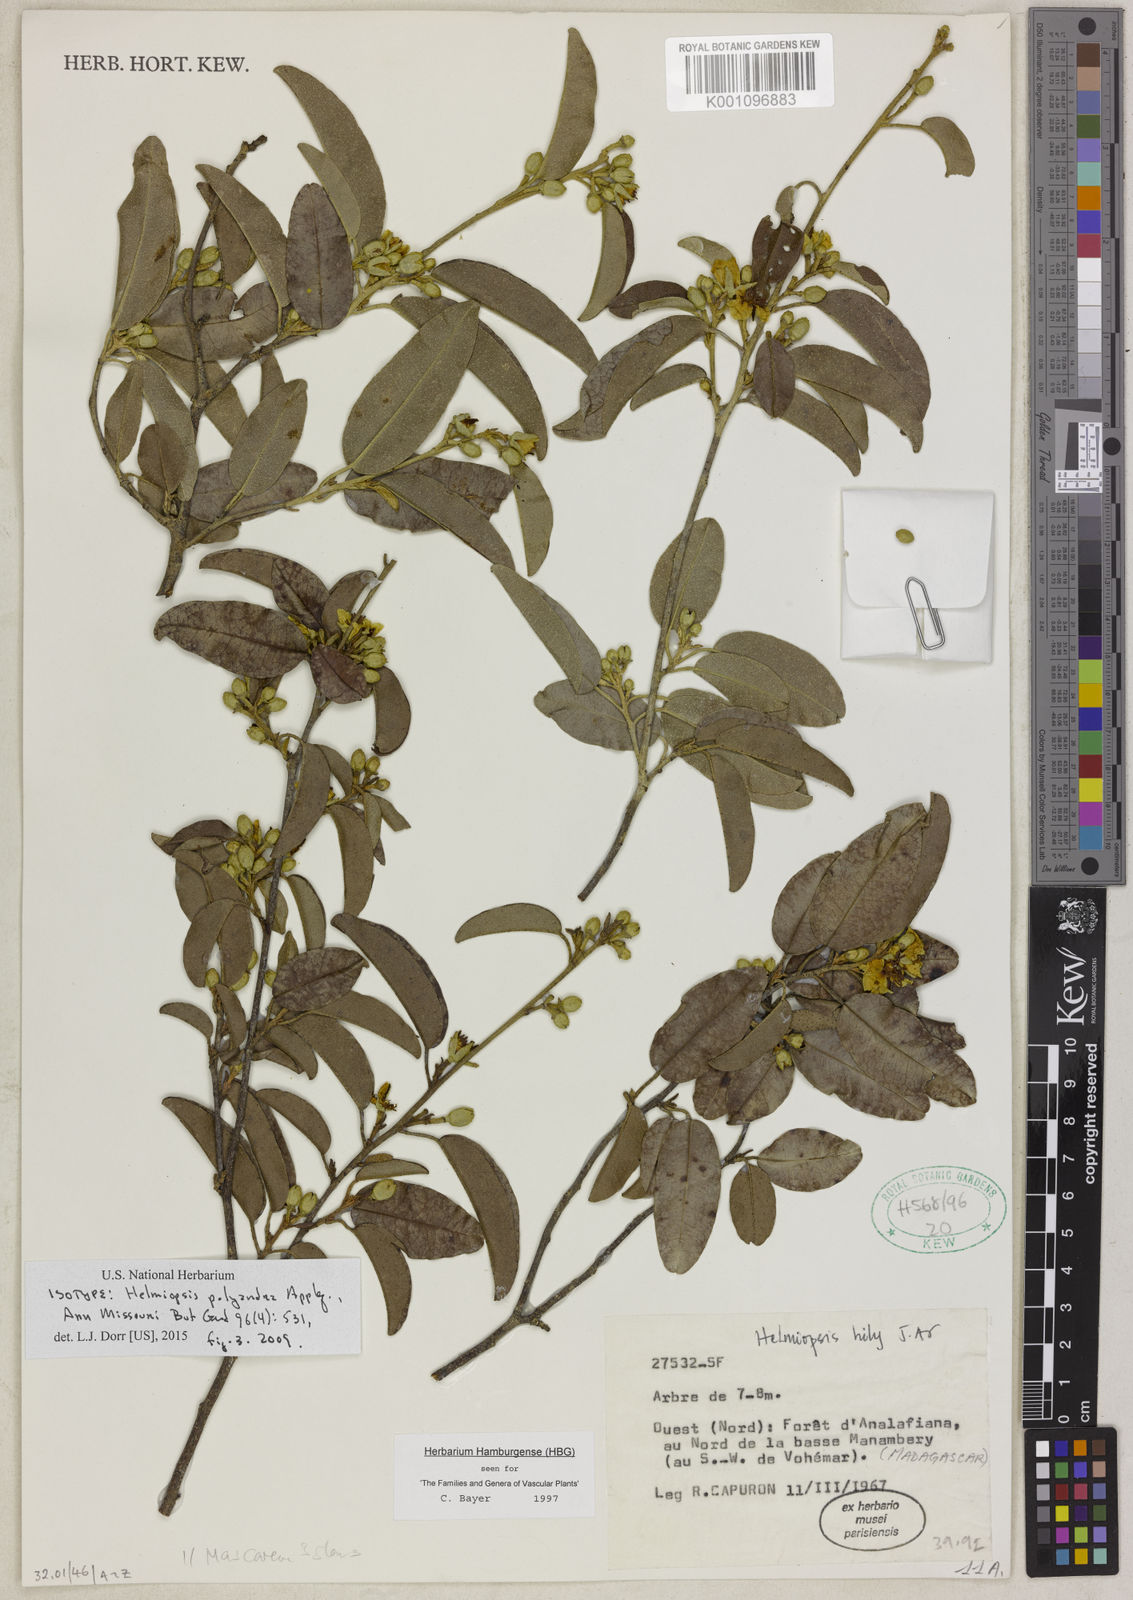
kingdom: Plantae
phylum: Tracheophyta
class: Magnoliopsida
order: Malvales
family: Malvaceae
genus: Eriolaena
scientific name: Eriolaena polyandra
